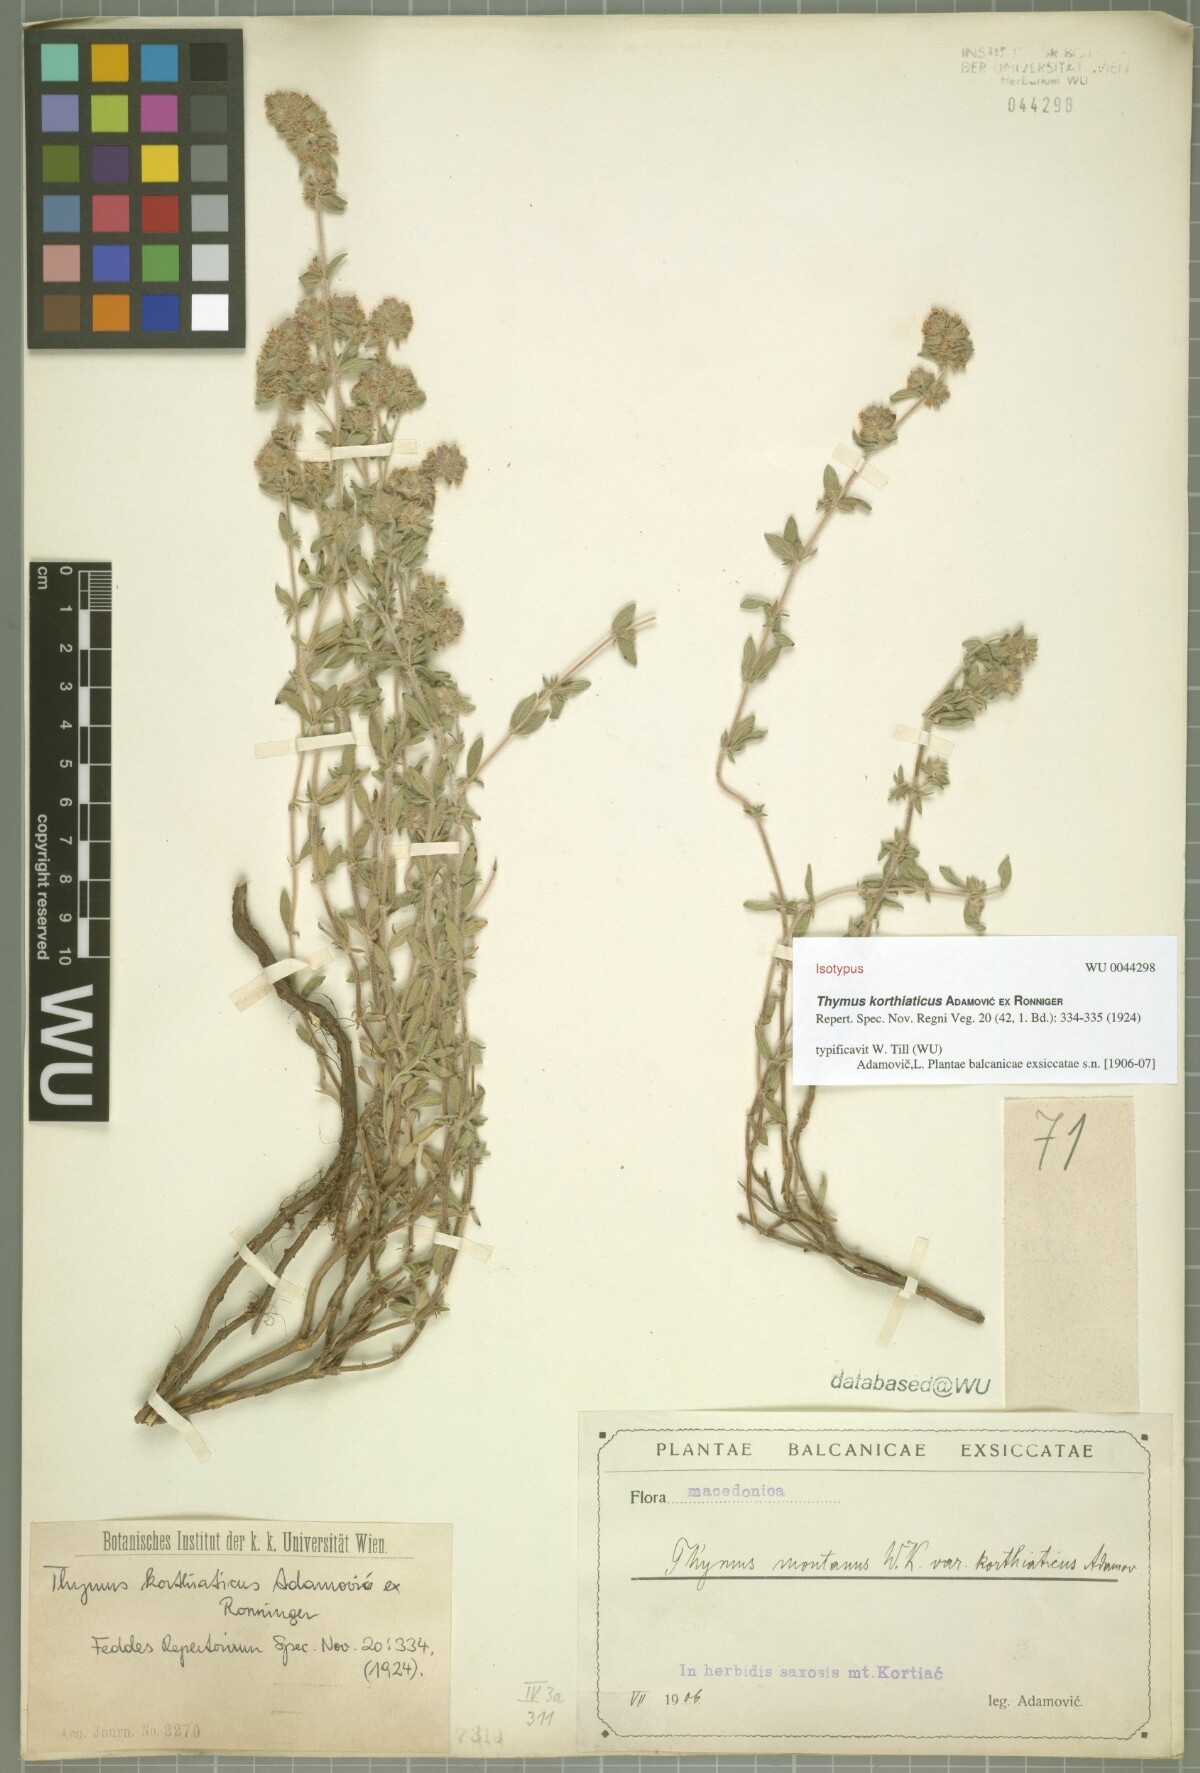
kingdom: Plantae
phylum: Tracheophyta
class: Magnoliopsida
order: Lamiales
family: Lamiaceae
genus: Thymus
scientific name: Thymus sibthorpii
